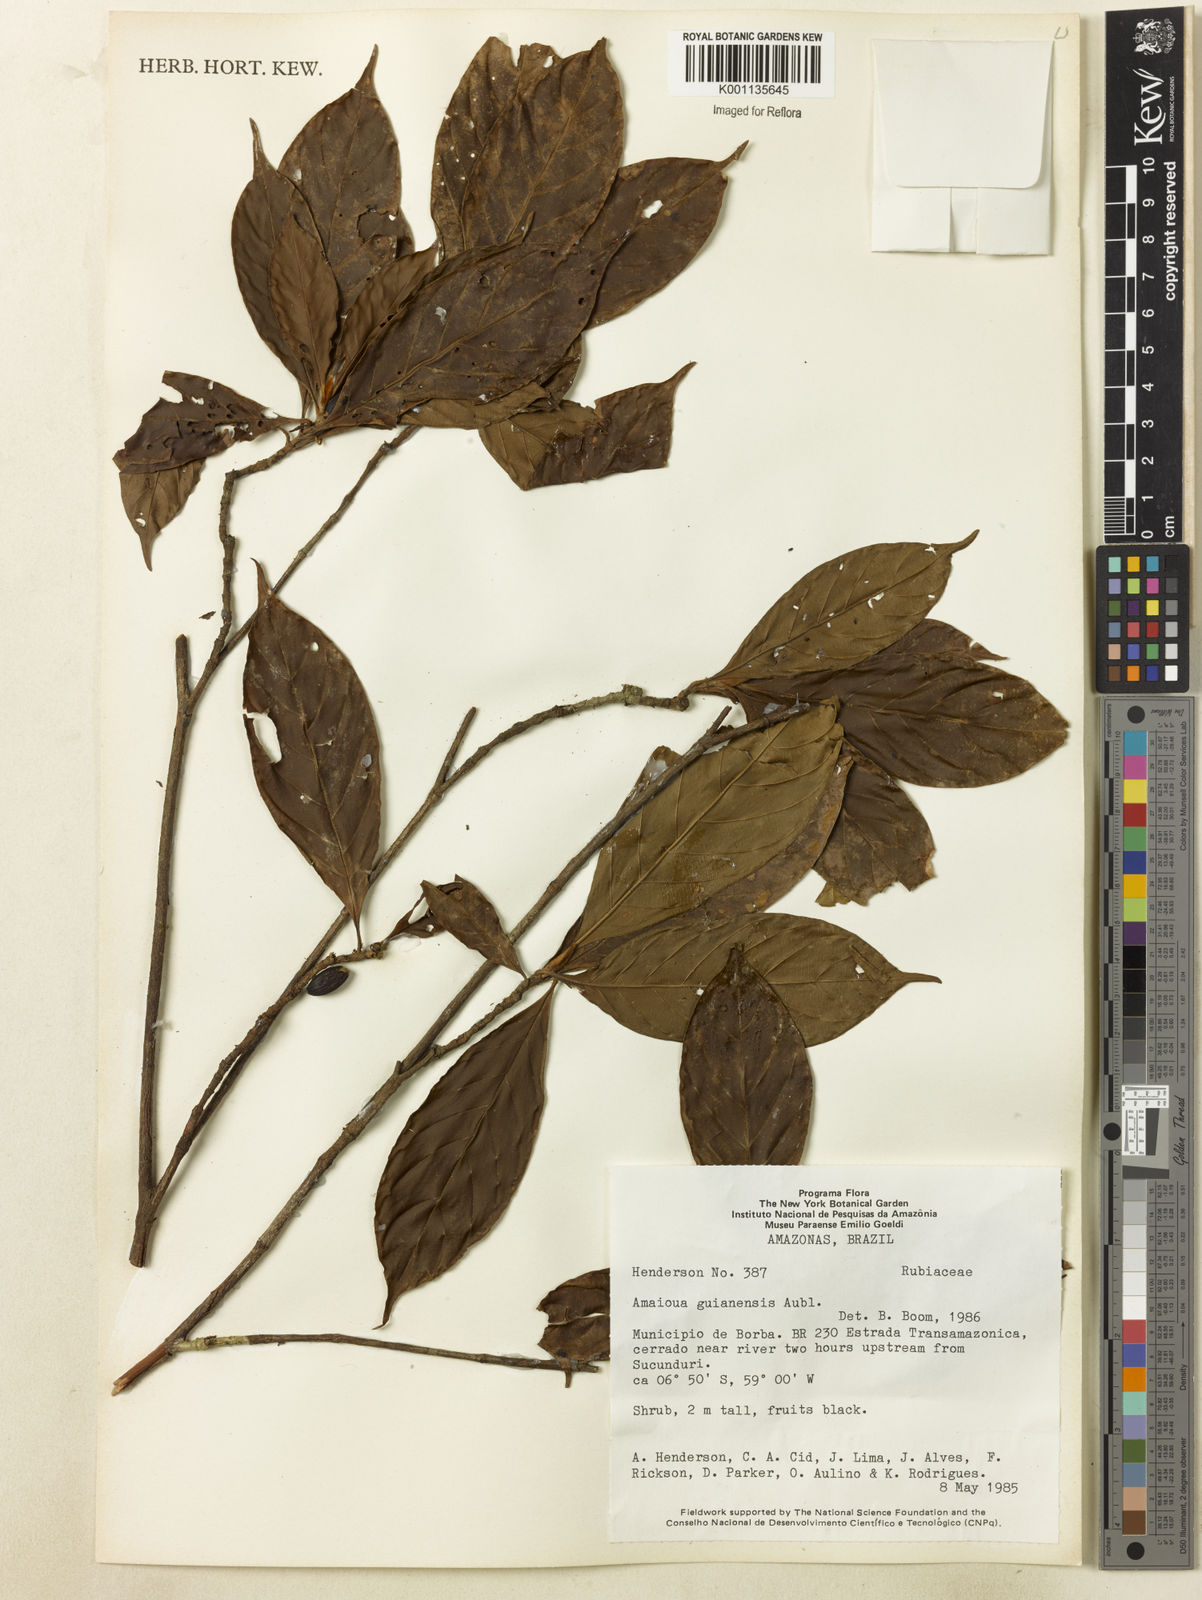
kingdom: Plantae
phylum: Tracheophyta
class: Magnoliopsida
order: Gentianales
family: Rubiaceae
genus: Amaioua
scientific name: Amaioua guianensis
